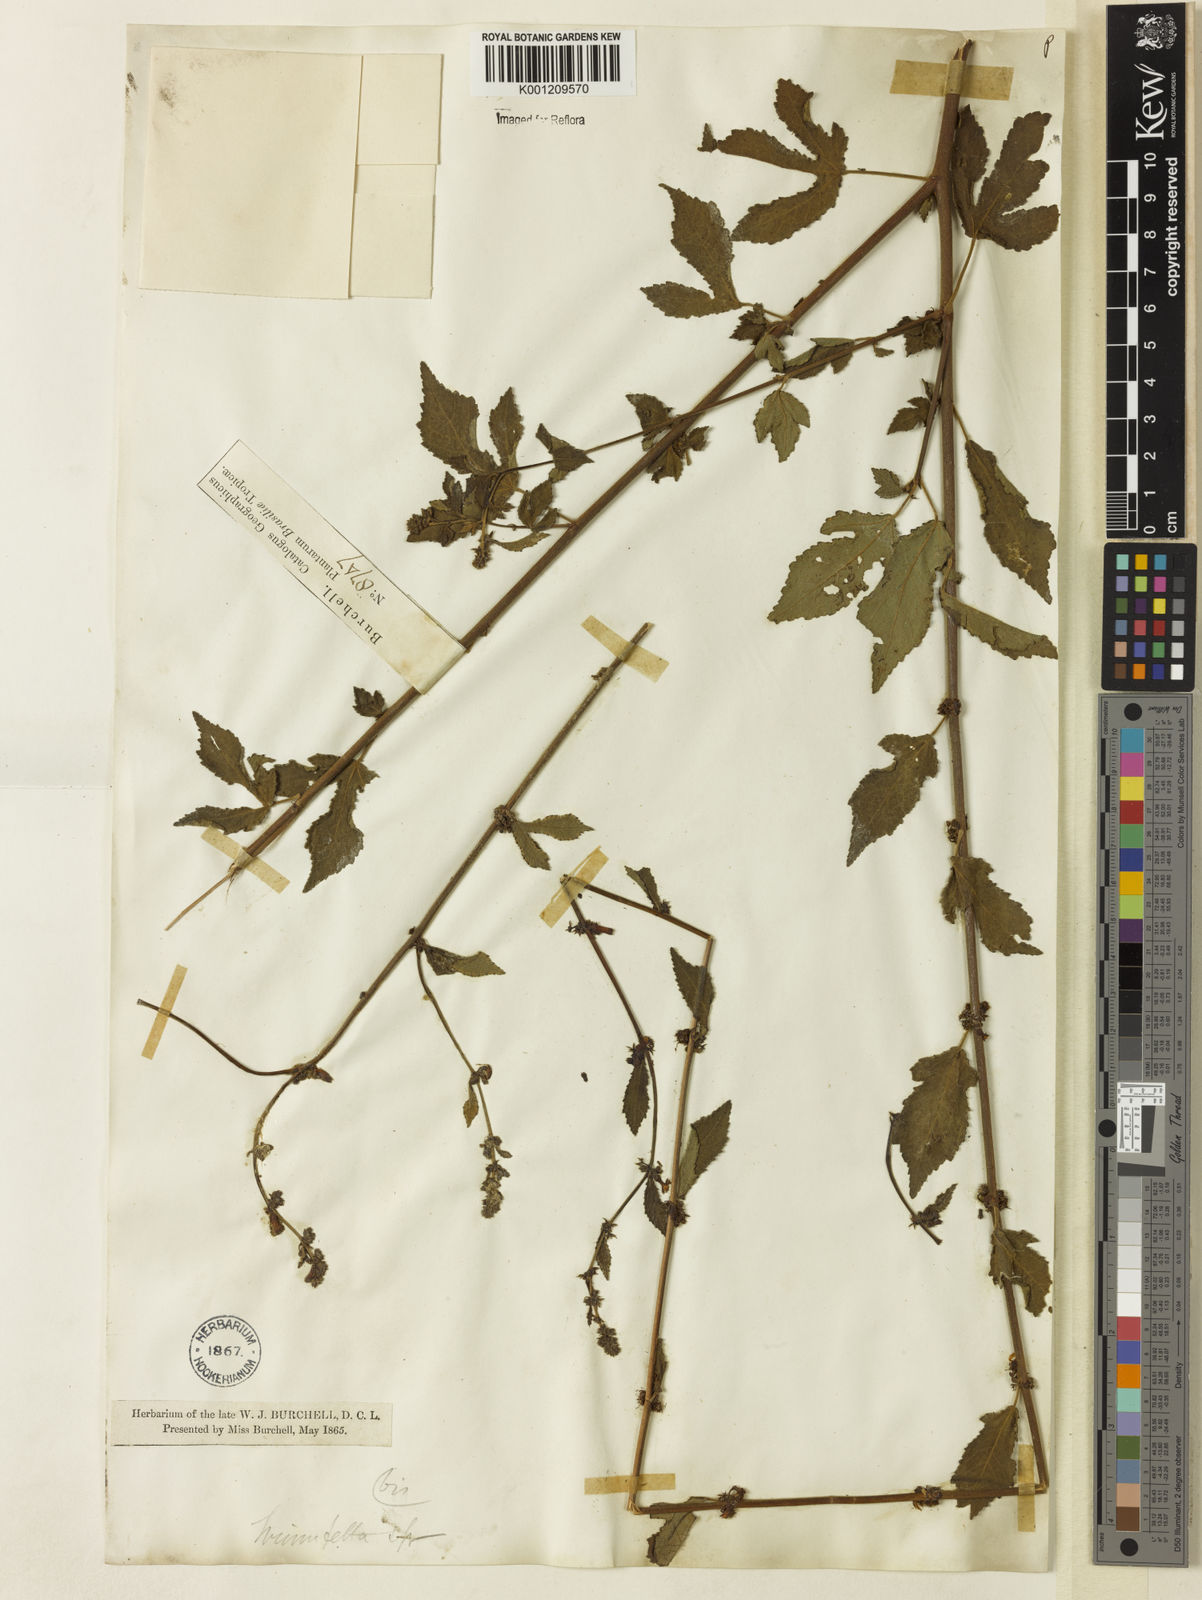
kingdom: Plantae
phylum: Tracheophyta
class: Magnoliopsida
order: Malvales
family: Malvaceae
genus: Triumfetta
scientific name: Triumfetta rhomboidea
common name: Diamond burbark
